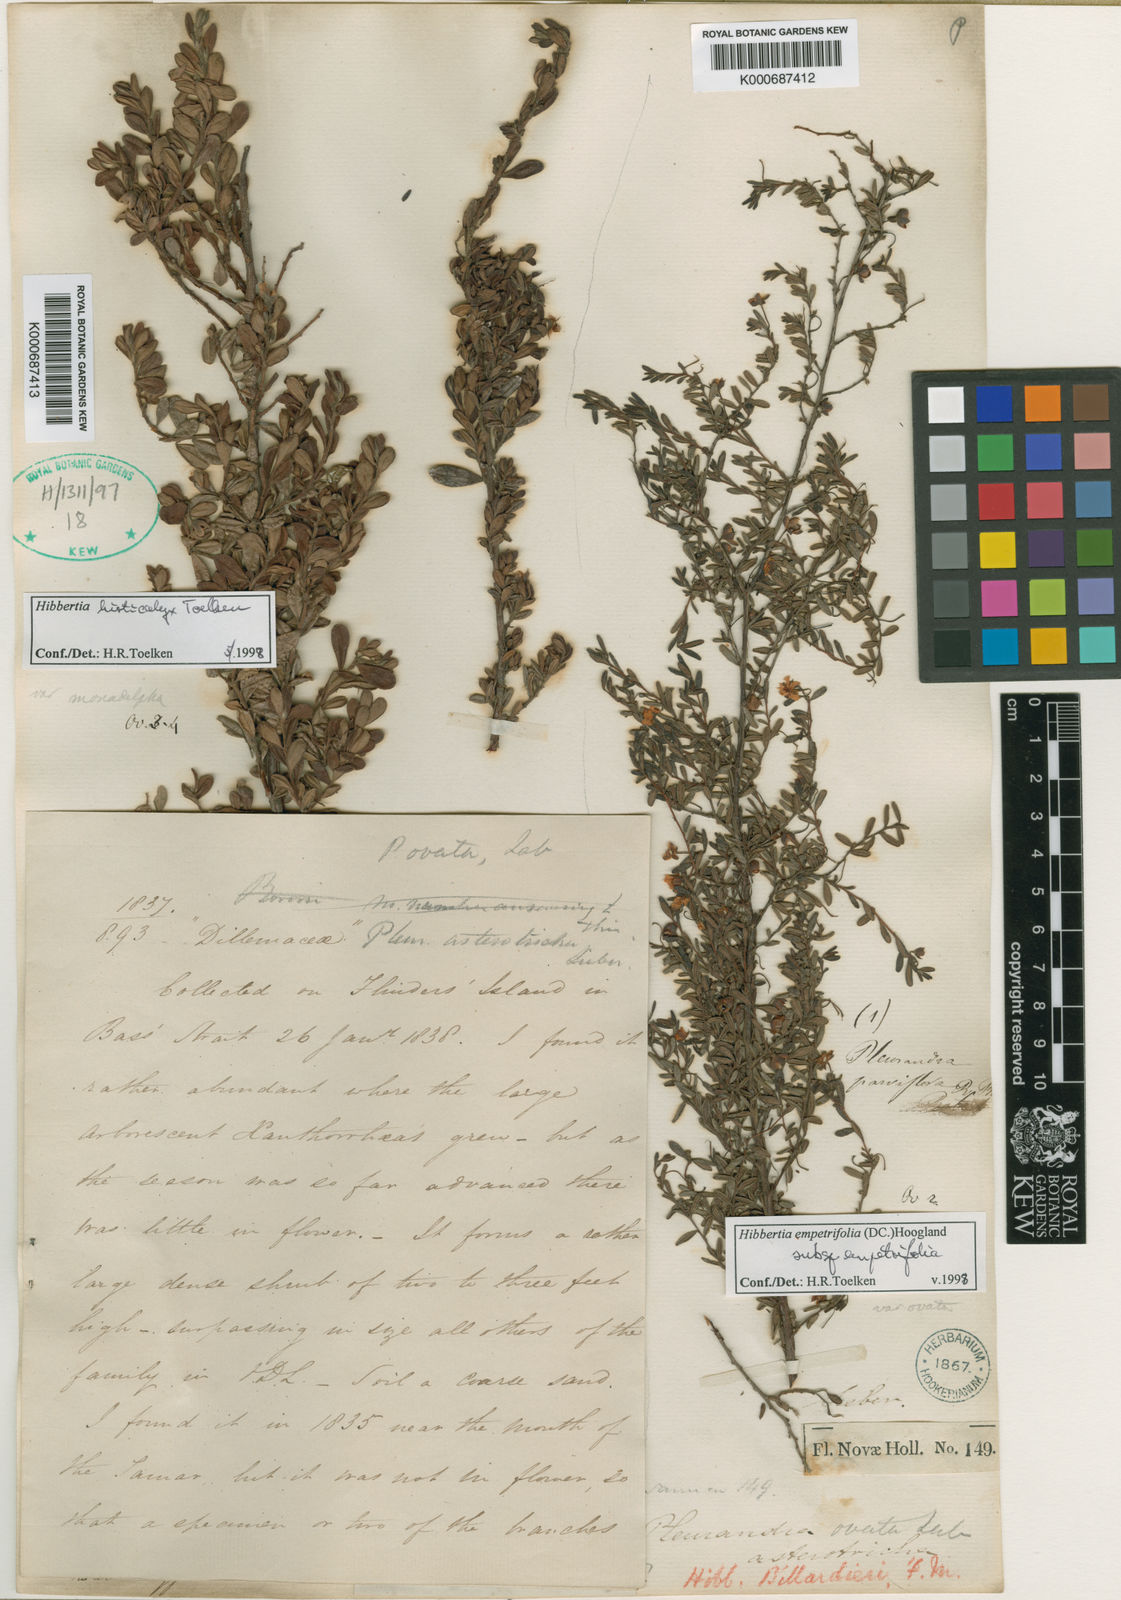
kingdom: Plantae
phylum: Tracheophyta
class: Magnoliopsida
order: Dilleniales
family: Dilleniaceae
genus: Hibbertia
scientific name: Hibbertia aspera
